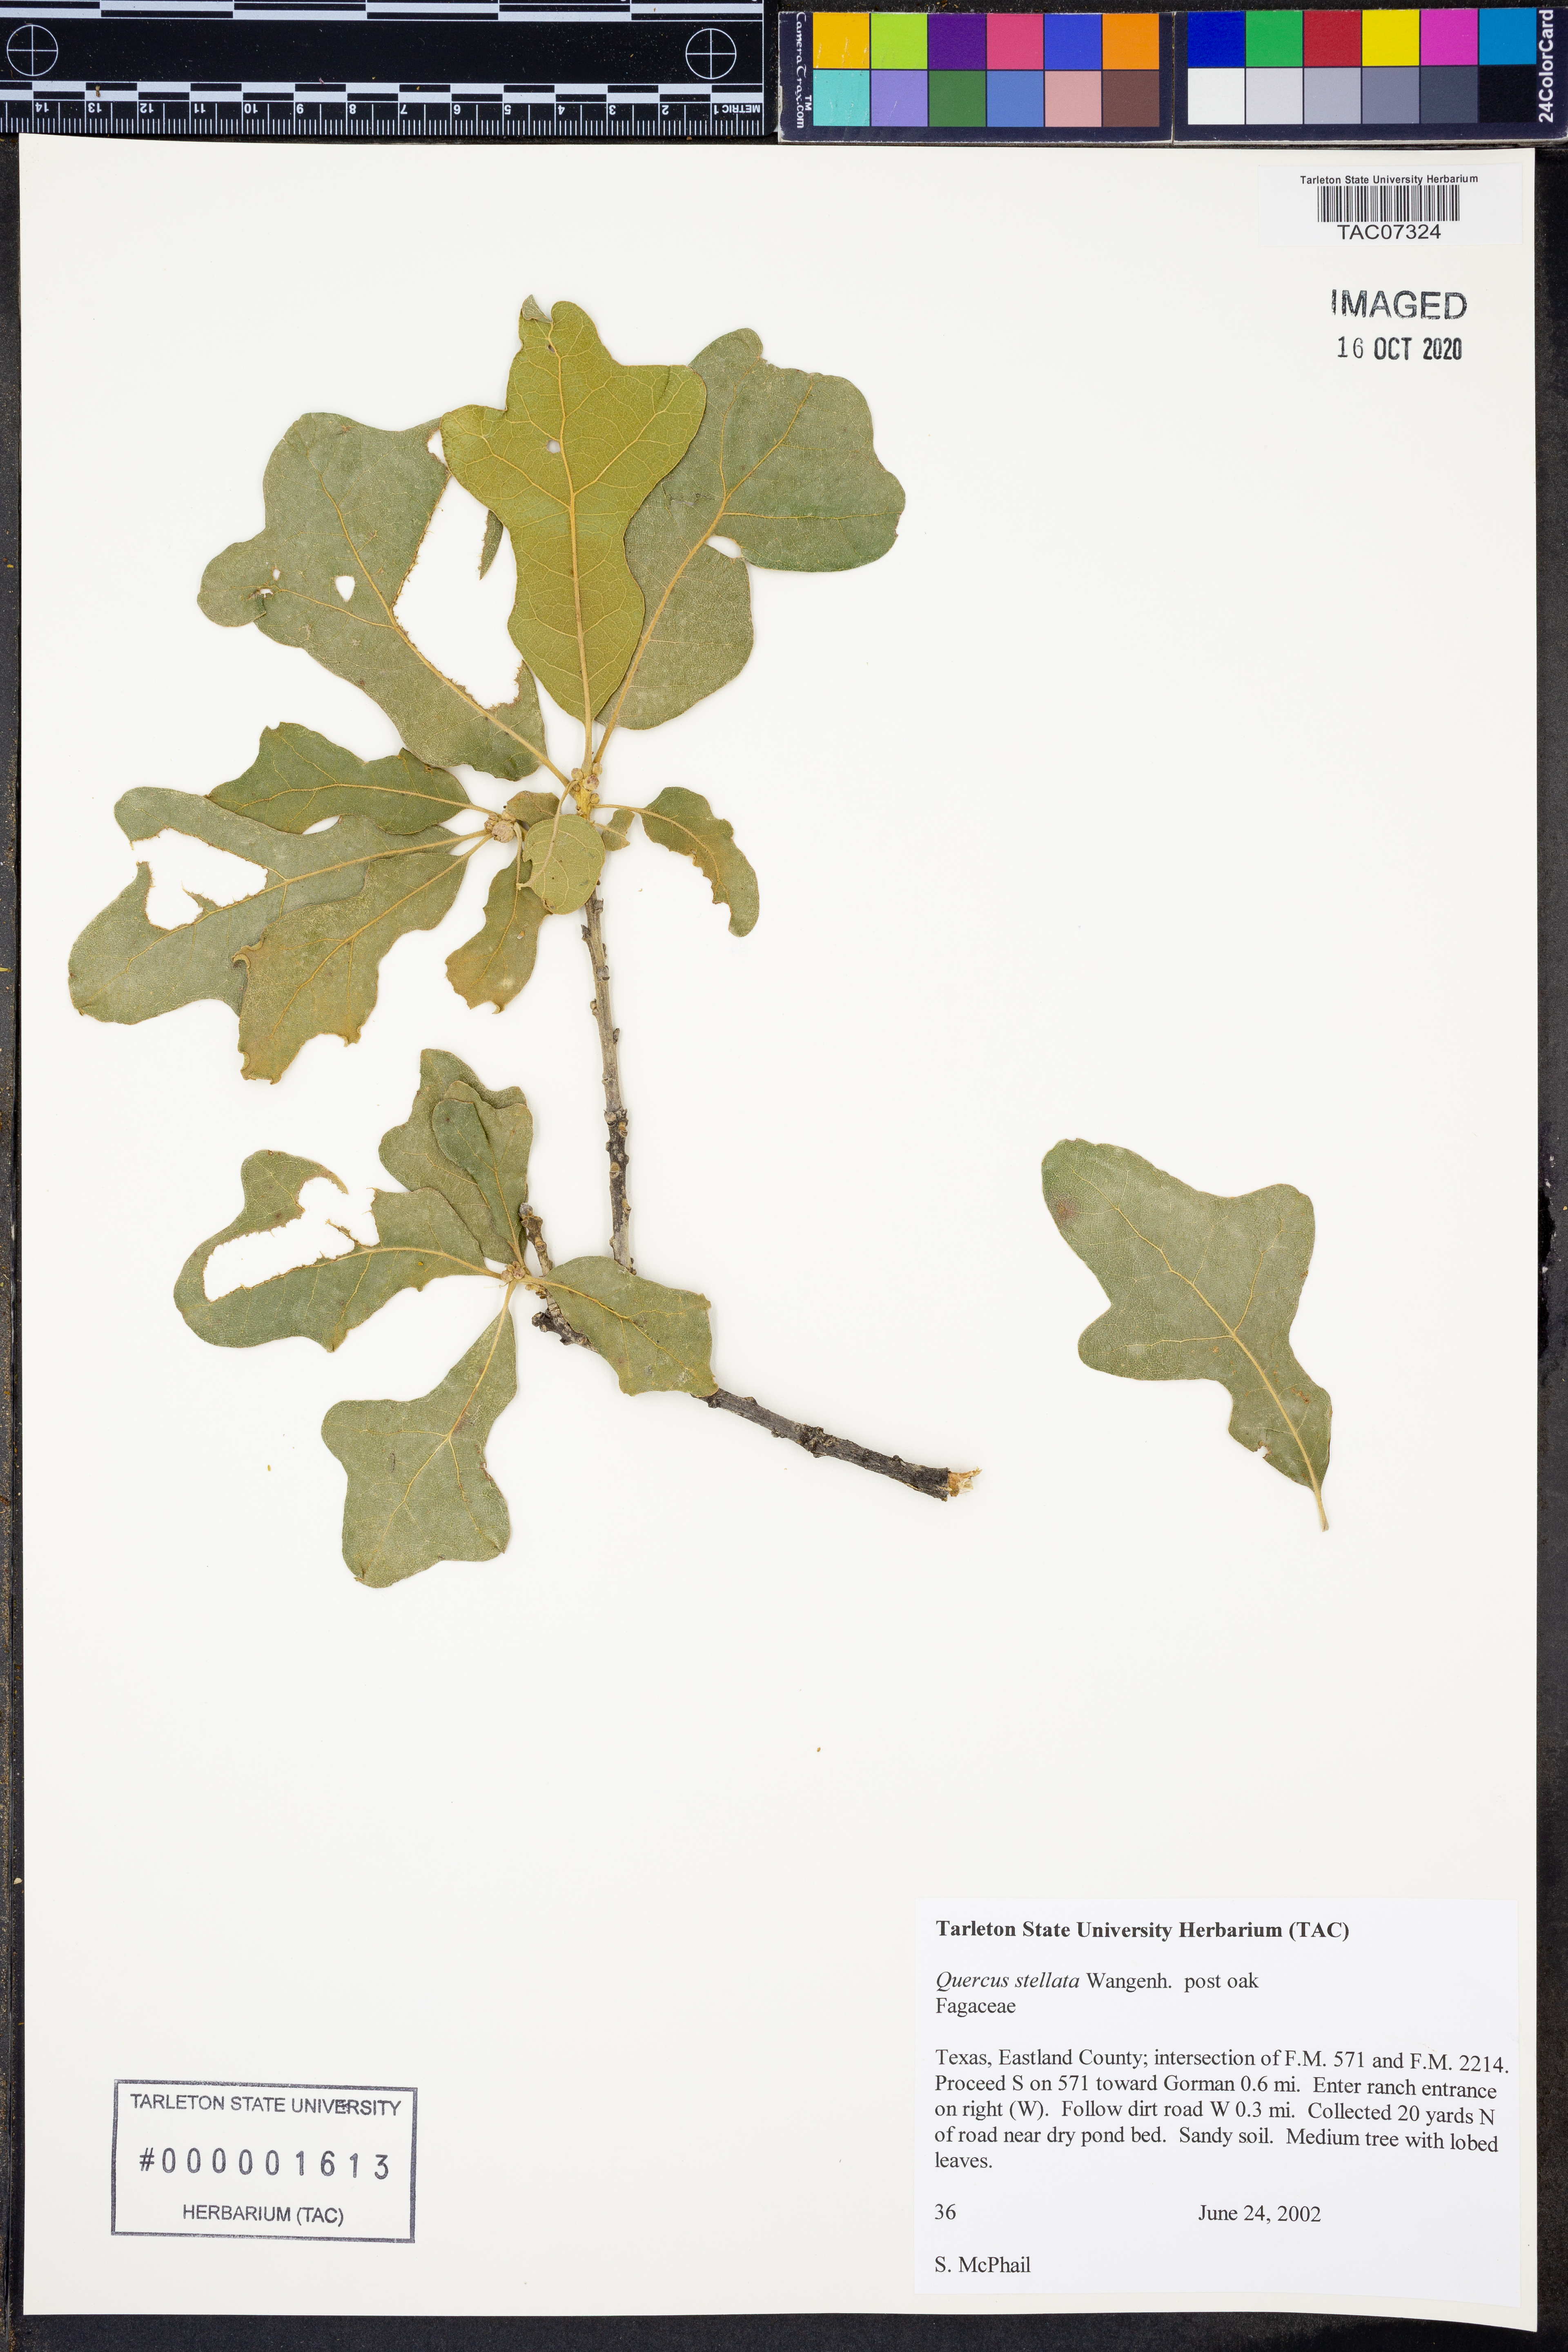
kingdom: Plantae
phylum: Tracheophyta
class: Magnoliopsida
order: Fagales
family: Fagaceae
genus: Quercus
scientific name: Quercus stellata
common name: Post oak
